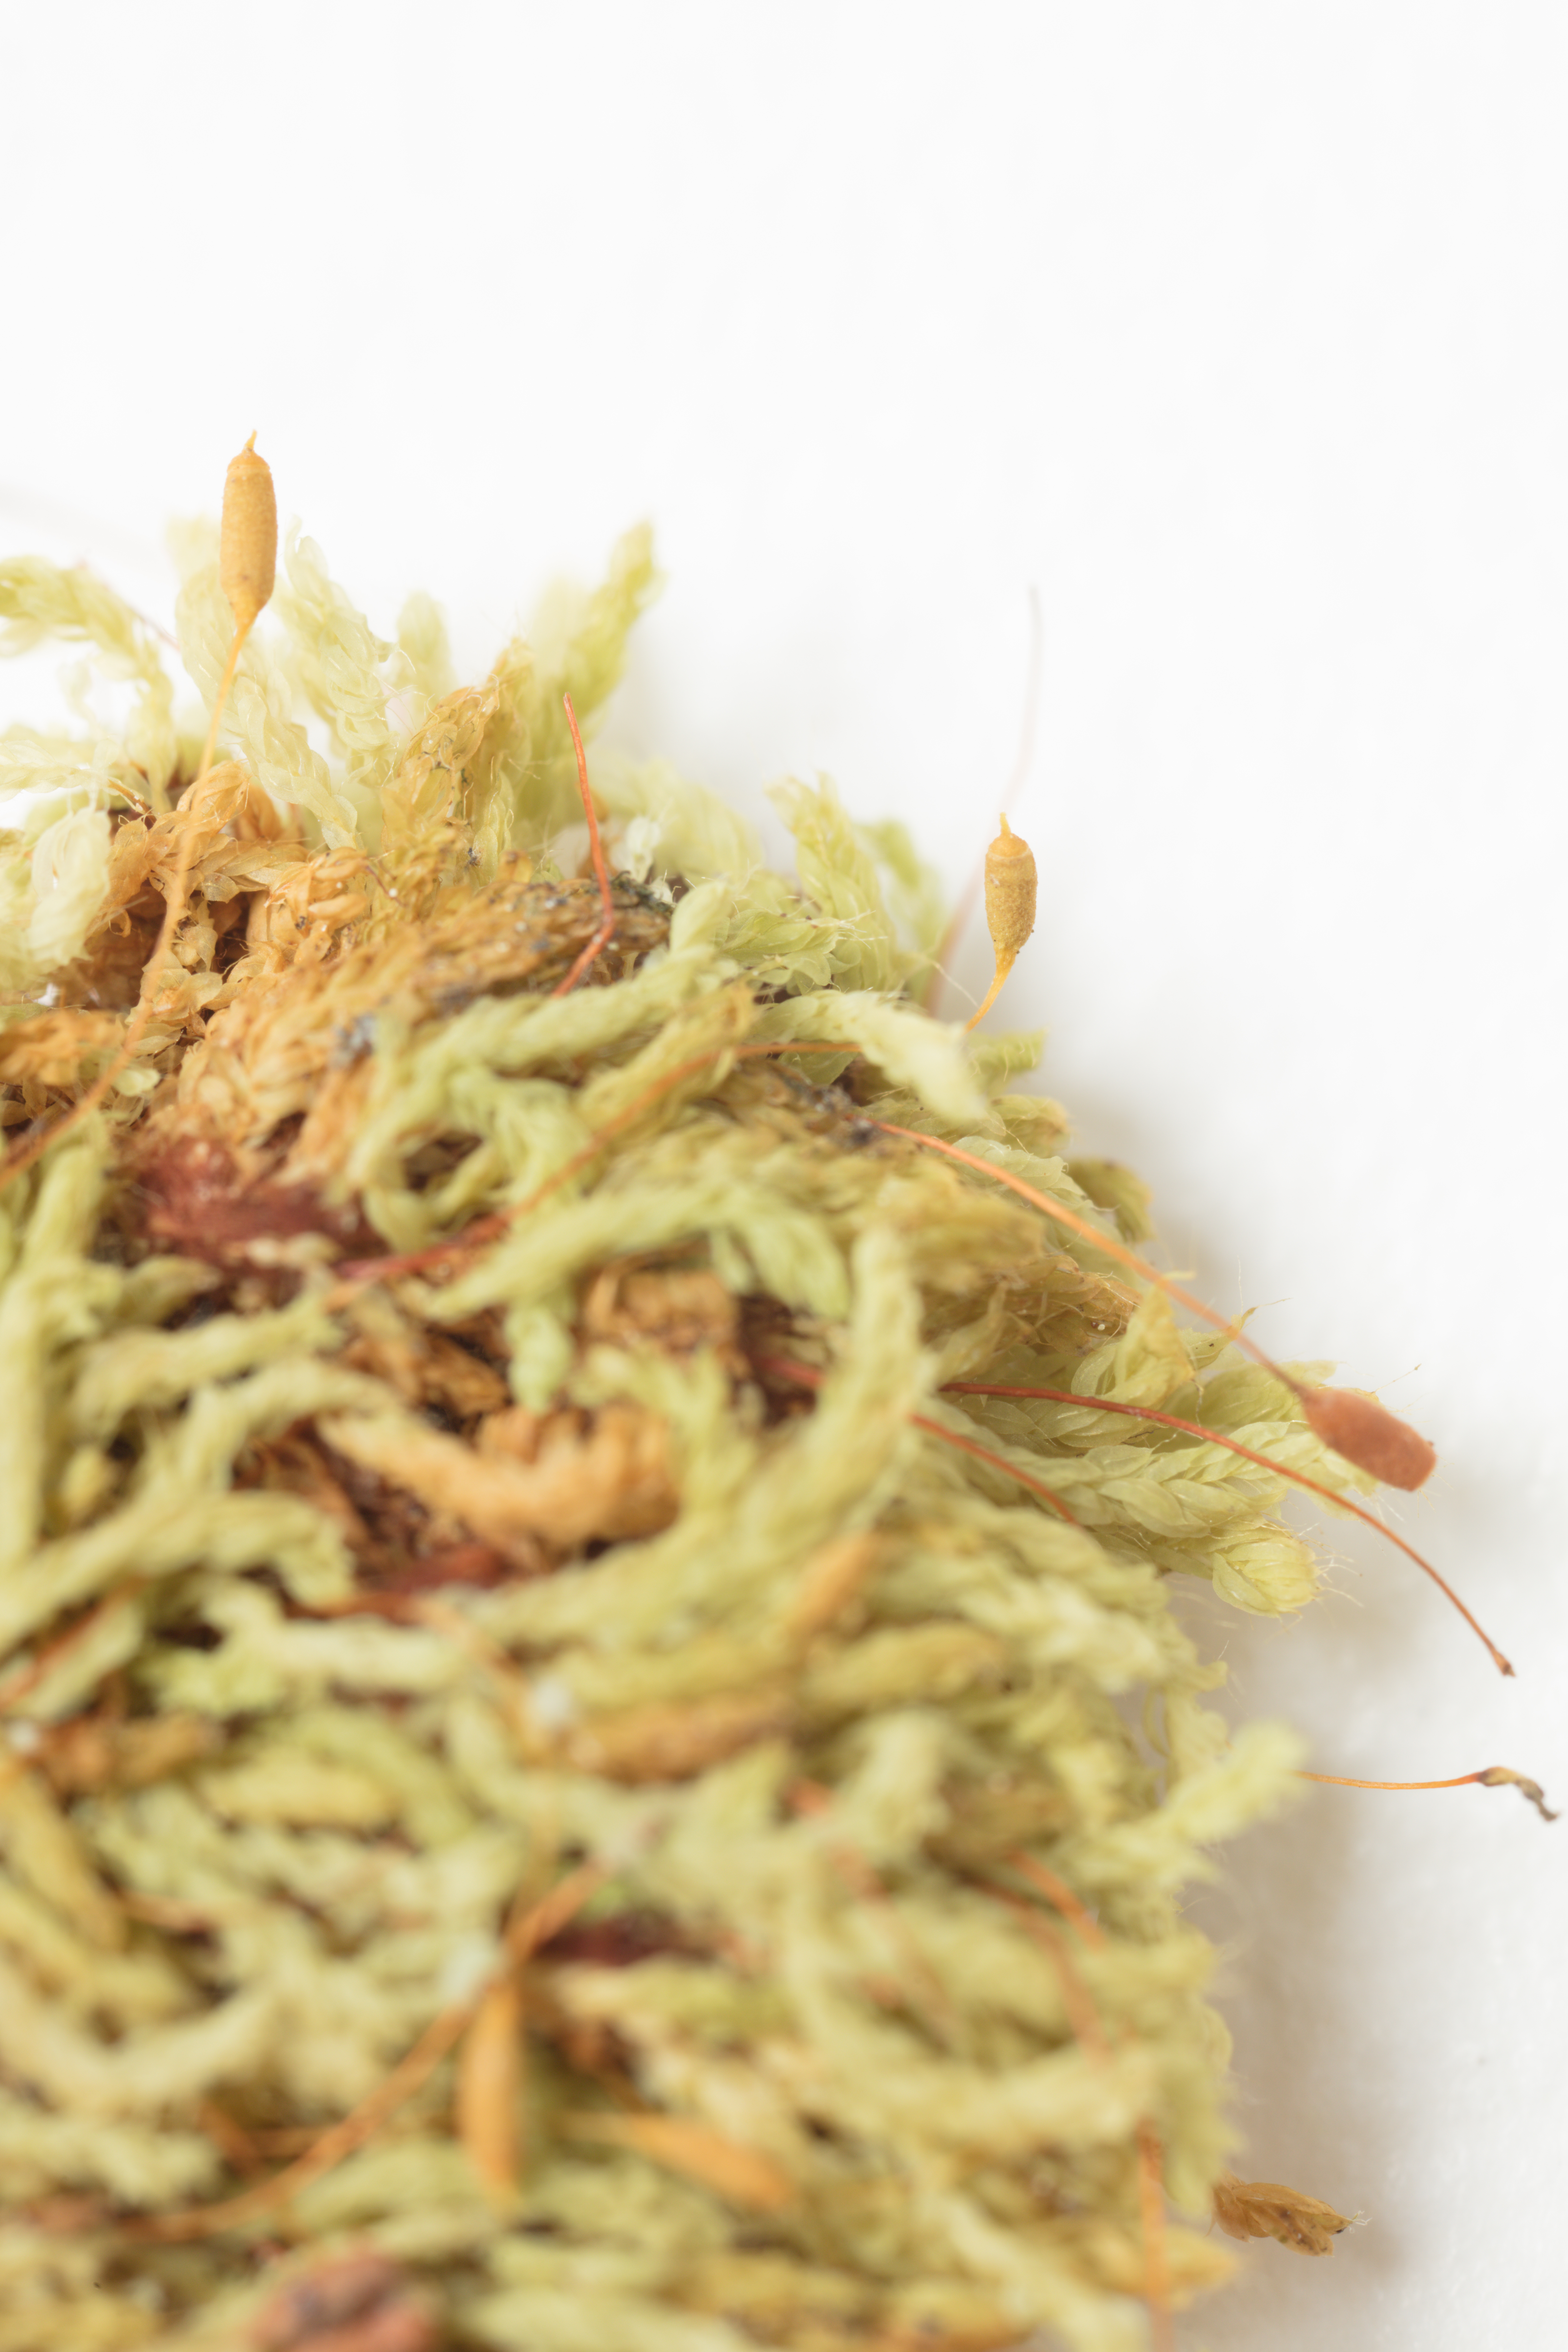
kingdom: Plantae
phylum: Bryophyta
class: Bryopsida
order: Orthodontiales
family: Orthodontiaceae
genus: Hymenodon
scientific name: Hymenodon pilifer
